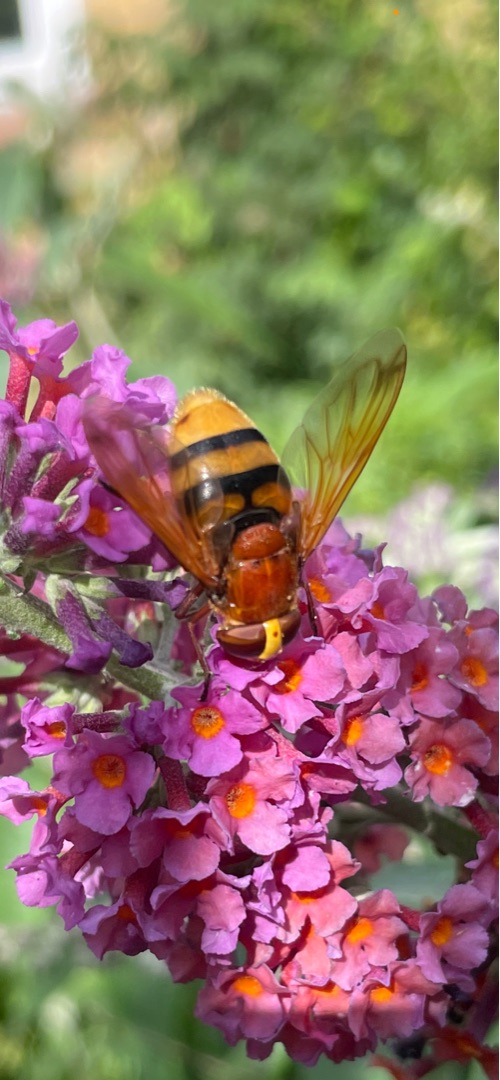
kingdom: Animalia
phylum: Arthropoda
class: Insecta
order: Diptera
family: Syrphidae
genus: Volucella
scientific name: Volucella zonaria
